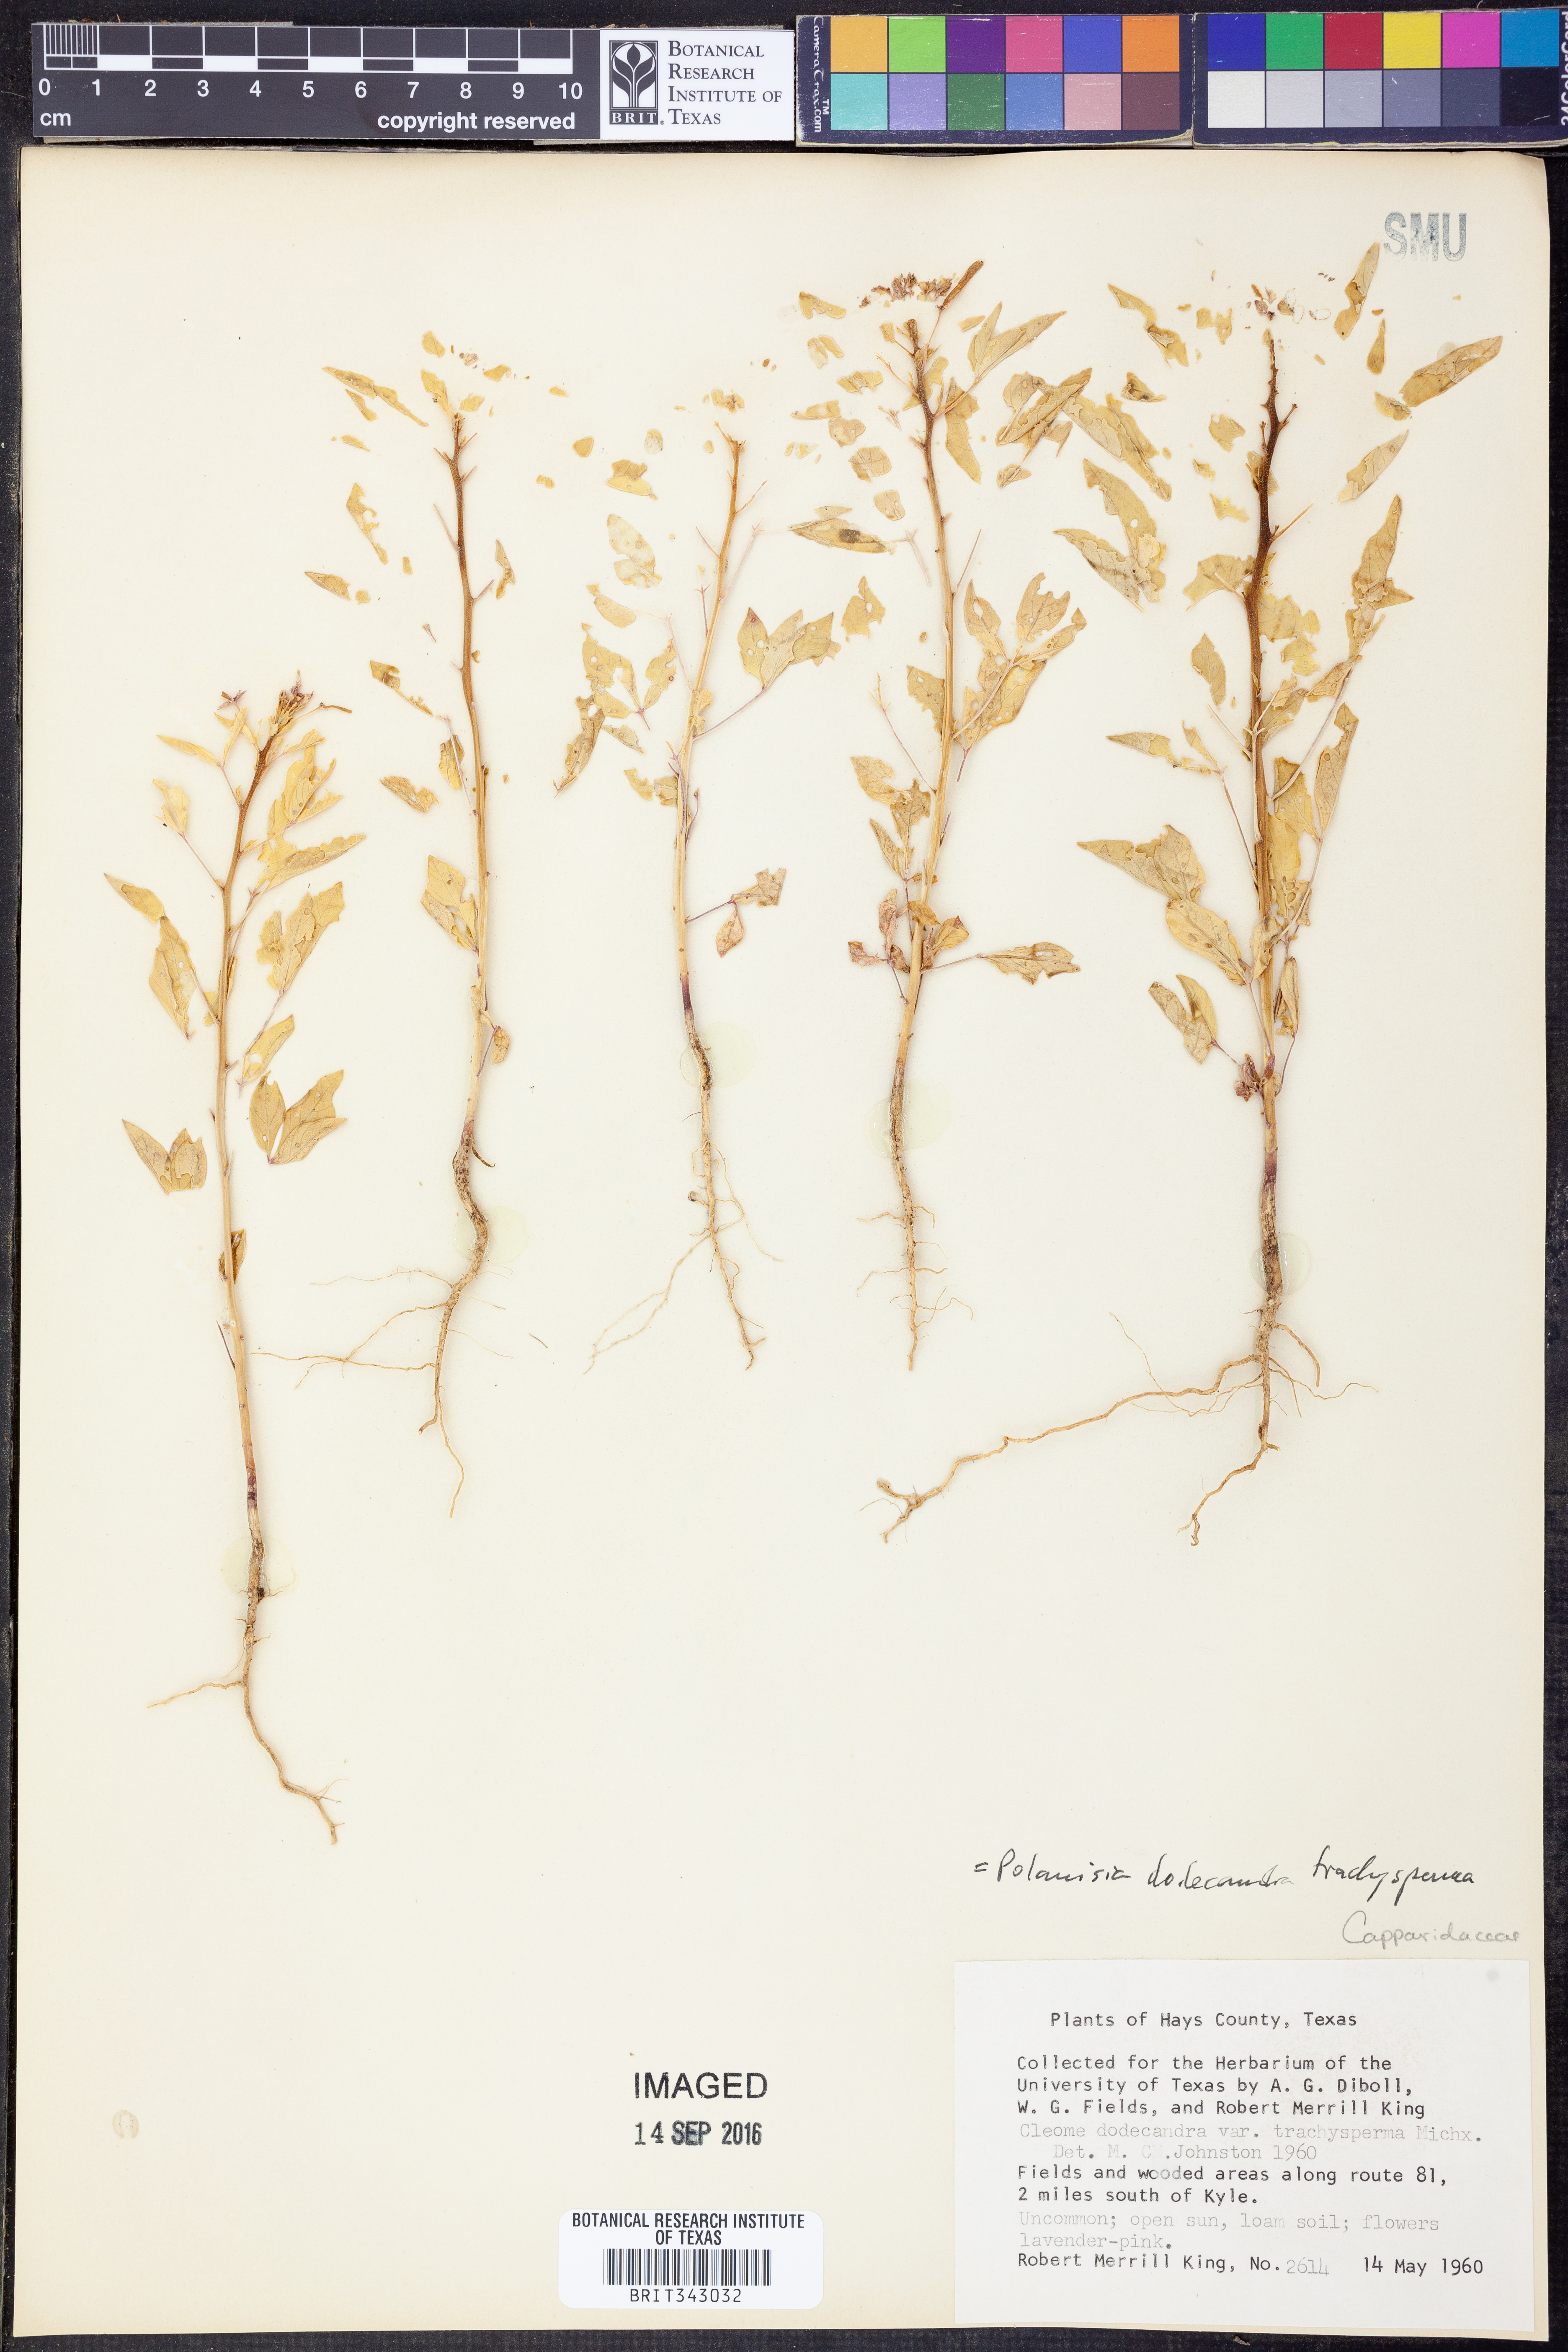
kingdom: Plantae
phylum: Tracheophyta
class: Magnoliopsida
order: Brassicales
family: Cleomaceae
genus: Polanisia
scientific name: Polanisia trachysperma
